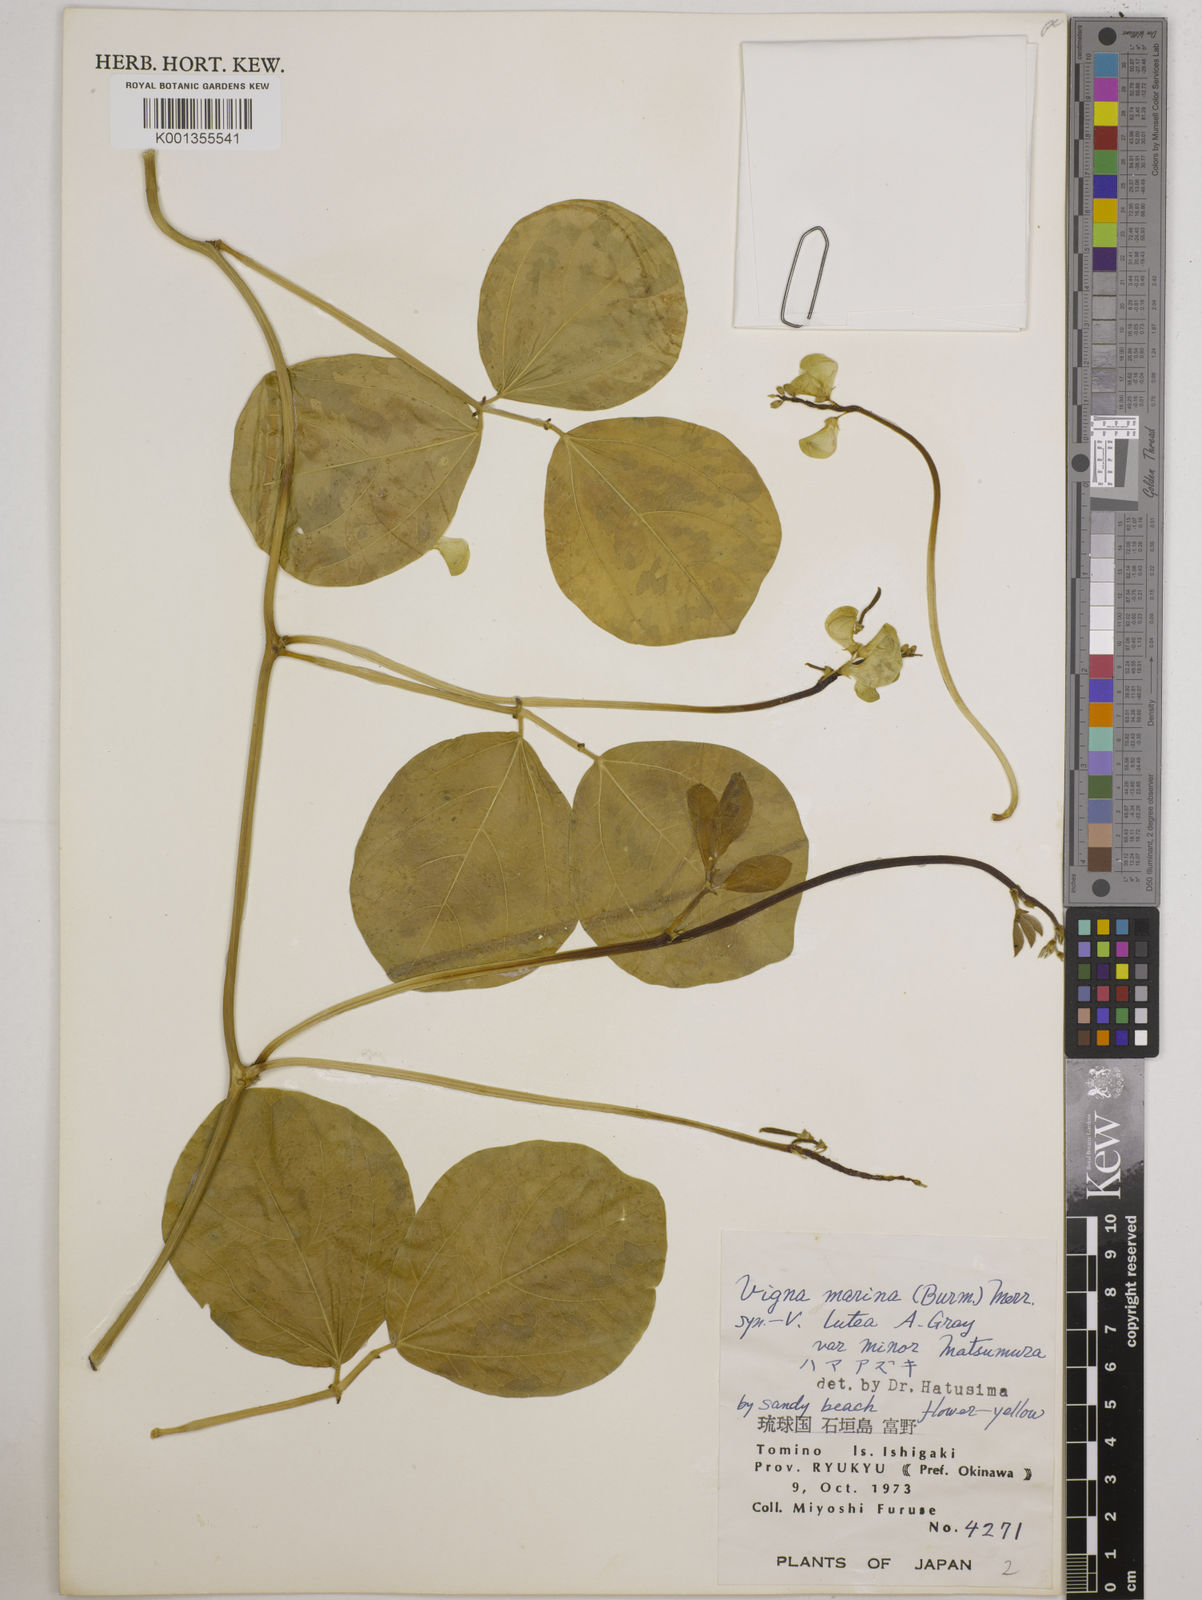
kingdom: Plantae
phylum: Tracheophyta
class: Magnoliopsida
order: Fabales
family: Fabaceae
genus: Vigna
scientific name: Vigna marina
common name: Dune-bean
